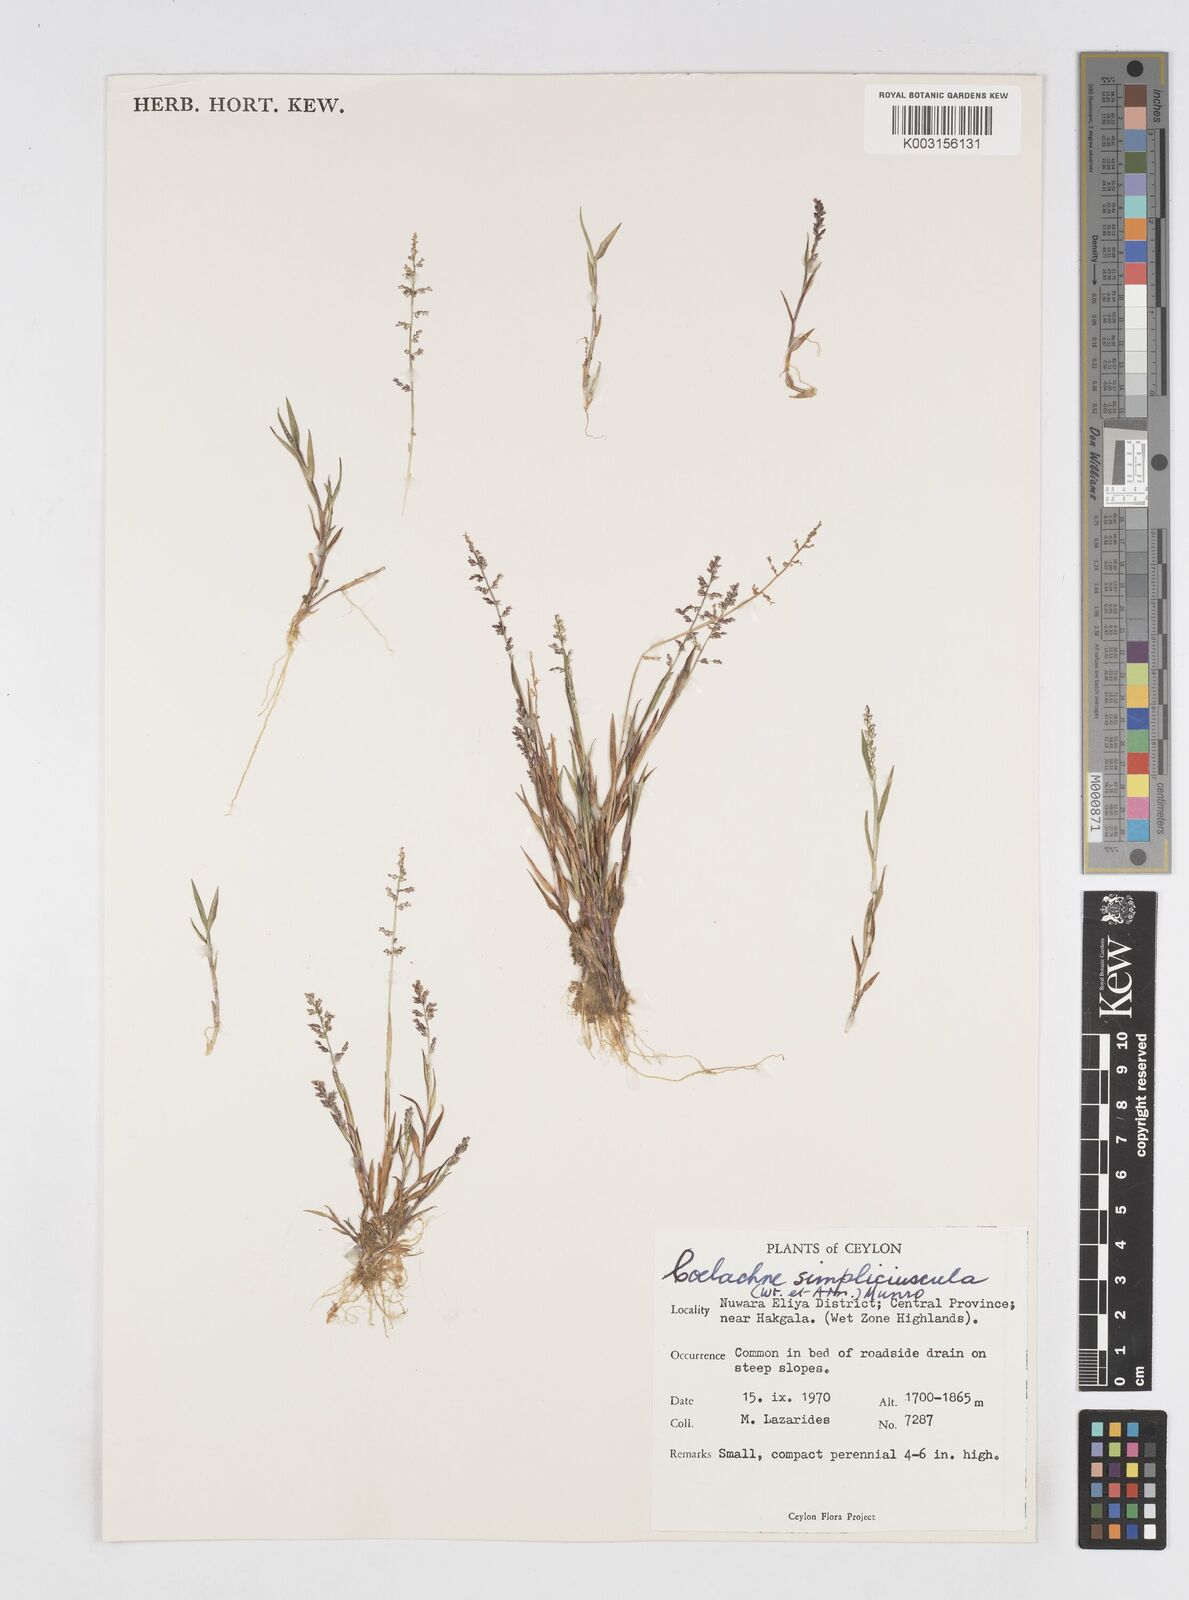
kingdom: Plantae
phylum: Tracheophyta
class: Liliopsida
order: Poales
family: Poaceae
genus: Coelachne
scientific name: Coelachne simpliciuscula
